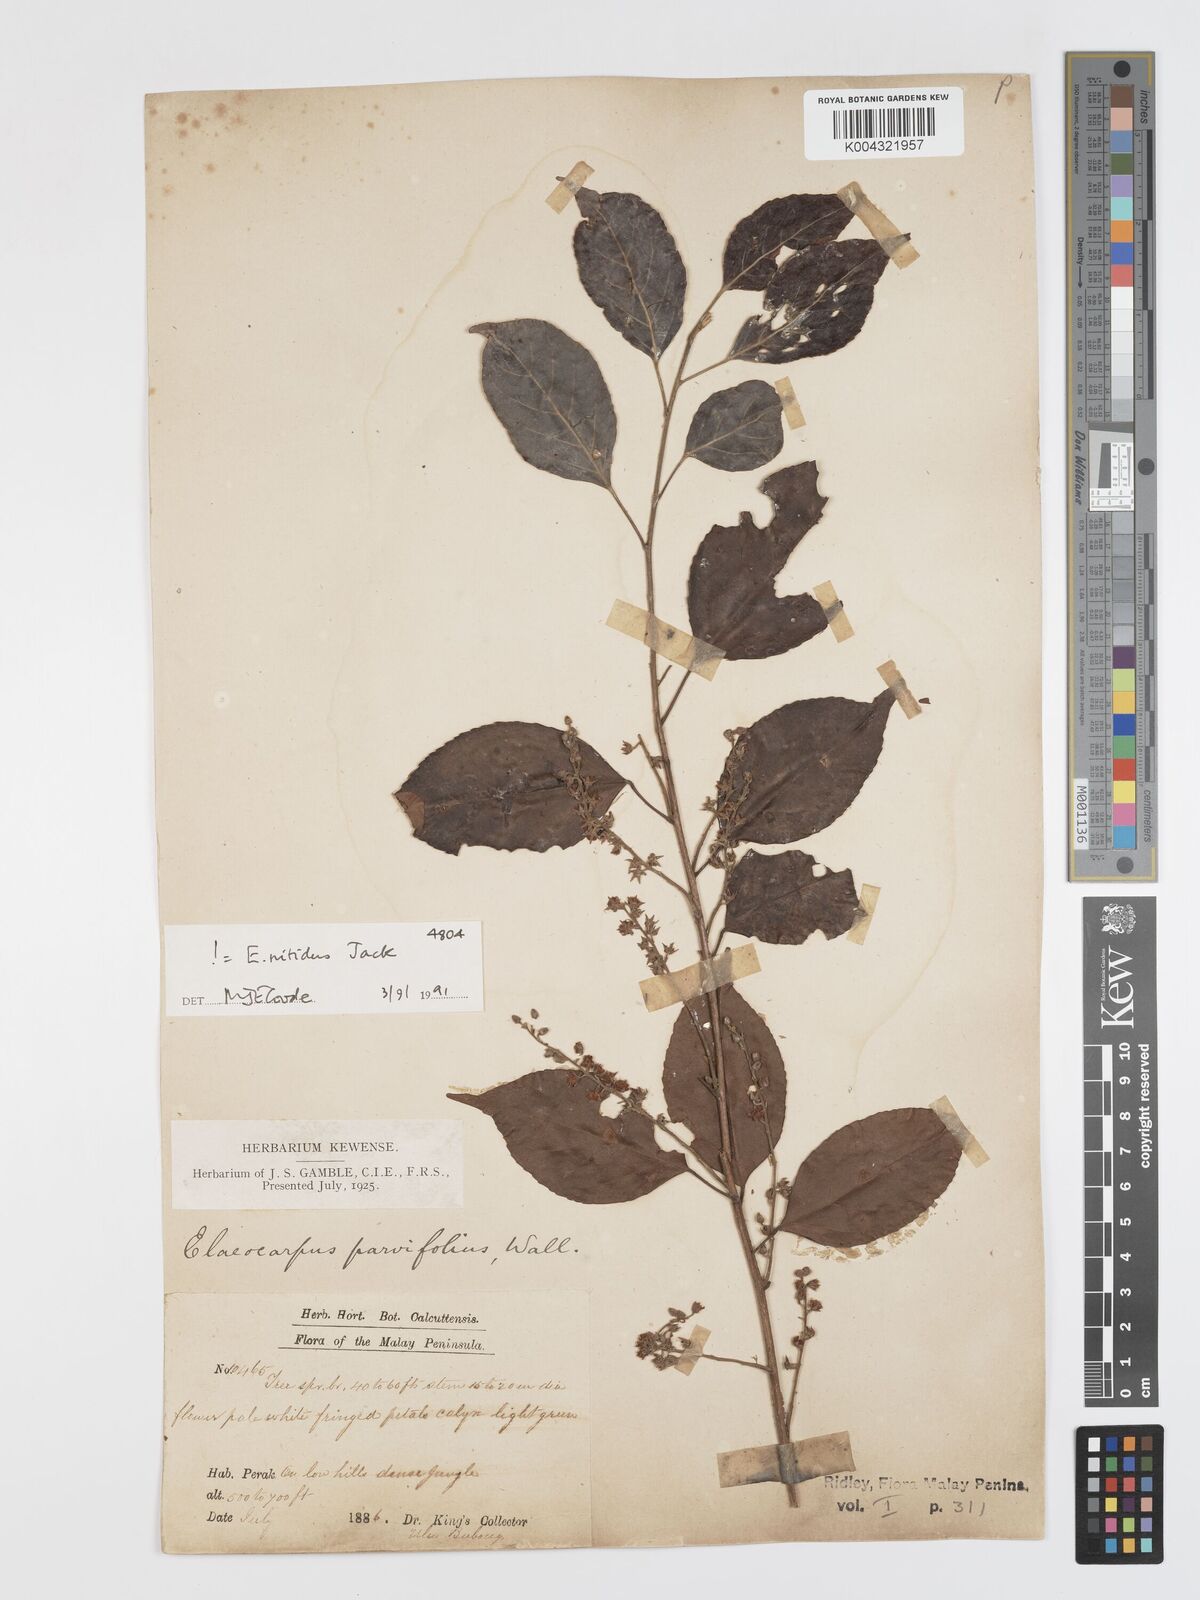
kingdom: Plantae
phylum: Tracheophyta
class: Magnoliopsida
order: Oxalidales
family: Elaeocarpaceae
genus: Elaeocarpus
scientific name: Elaeocarpus nitidus
